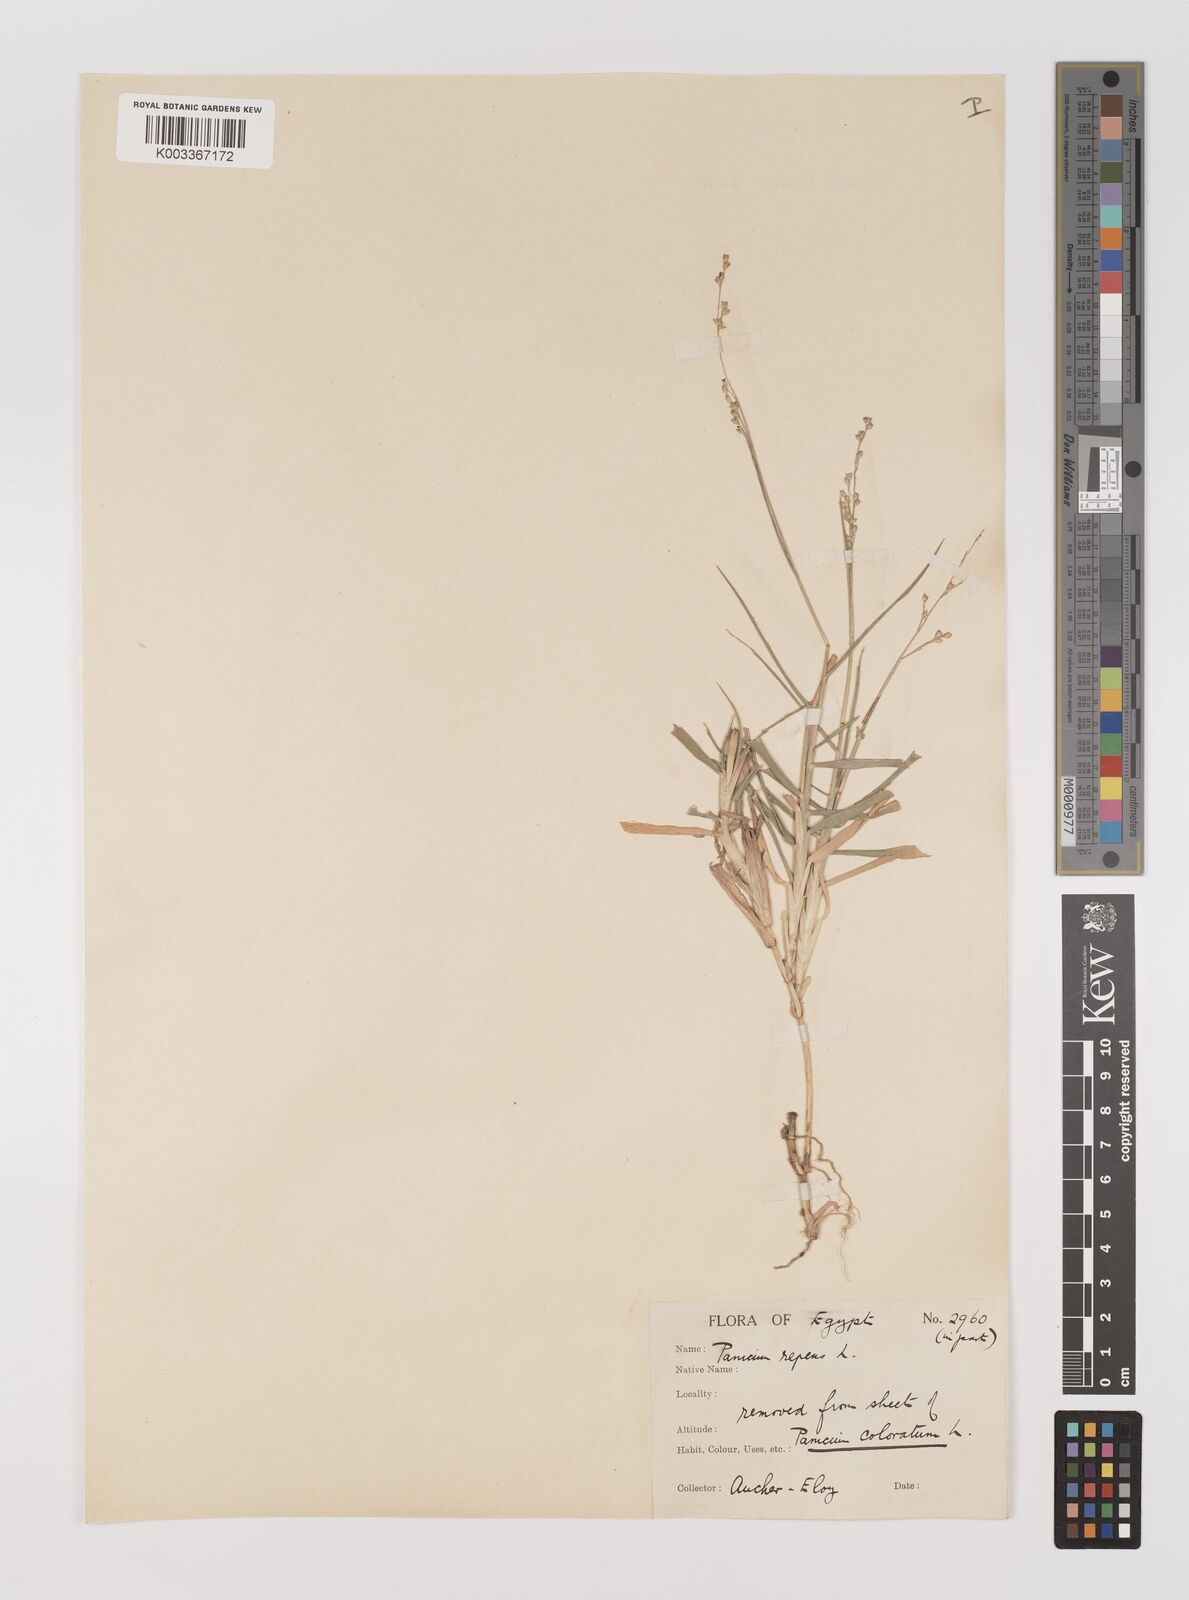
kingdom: Plantae
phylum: Tracheophyta
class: Liliopsida
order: Poales
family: Poaceae
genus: Panicum
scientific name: Panicum repens
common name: Torpedo grass
